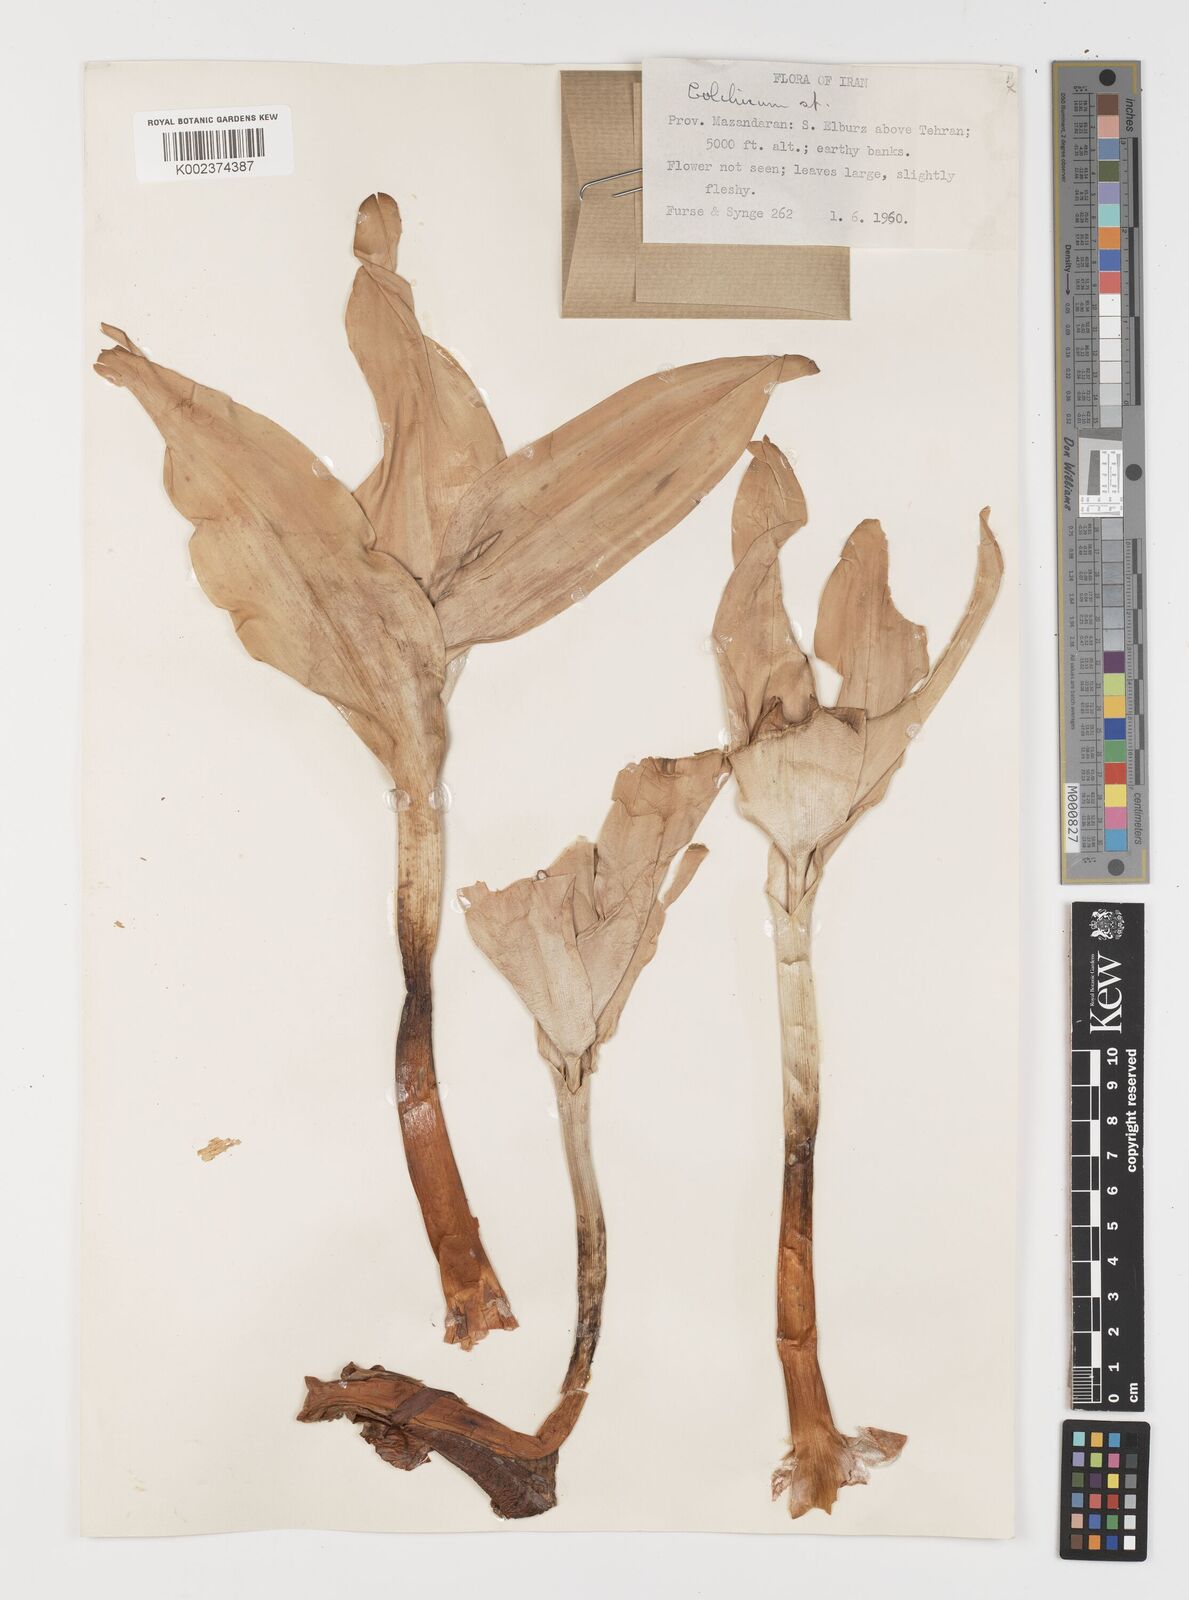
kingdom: Plantae
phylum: Tracheophyta
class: Liliopsida
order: Liliales
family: Colchicaceae
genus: Colchicum
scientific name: Colchicum
